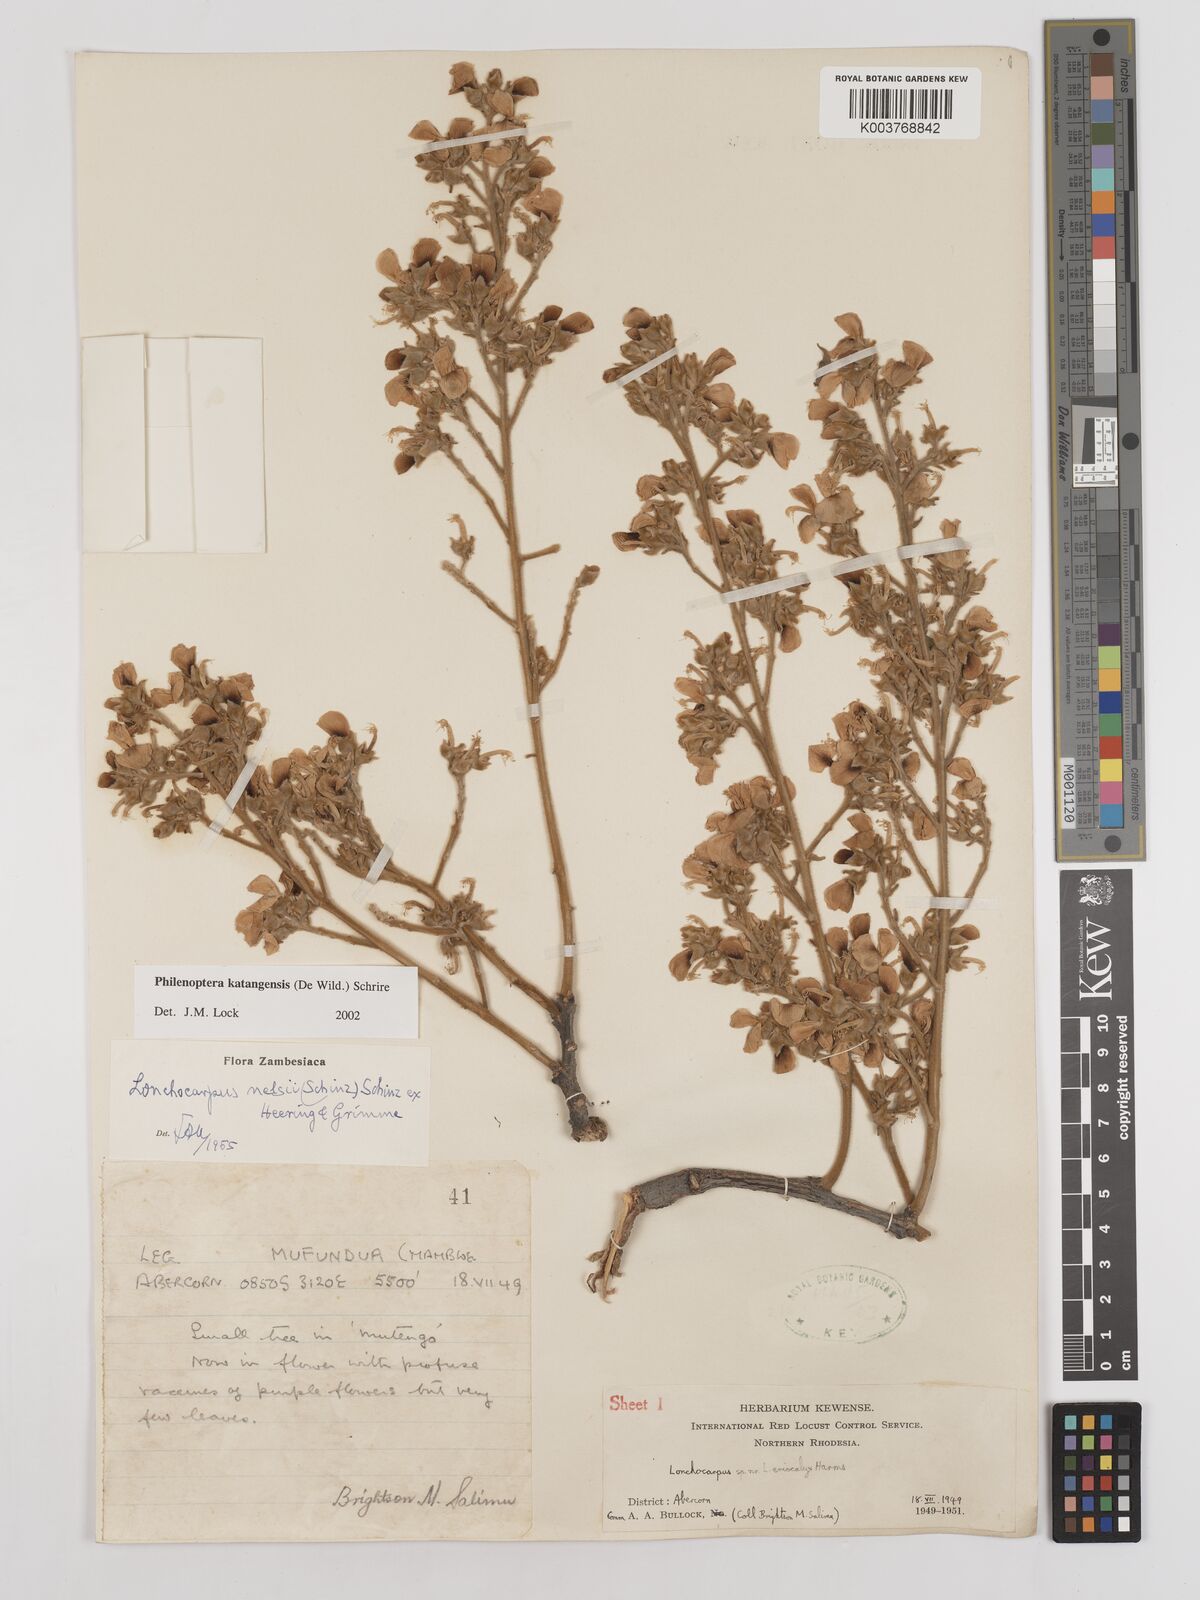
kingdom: Plantae
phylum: Tracheophyta
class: Magnoliopsida
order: Fabales
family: Fabaceae
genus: Philenoptera
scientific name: Philenoptera katangensis
